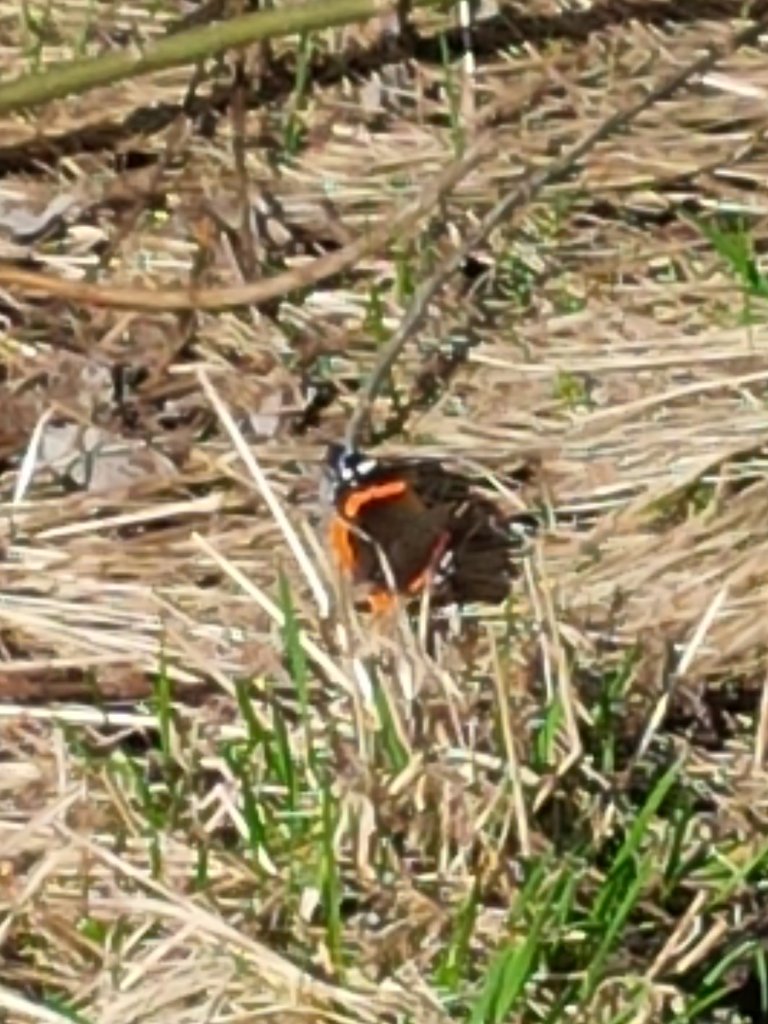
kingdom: Animalia
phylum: Arthropoda
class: Insecta
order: Lepidoptera
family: Nymphalidae
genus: Vanessa
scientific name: Vanessa atalanta
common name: Red Admiral
